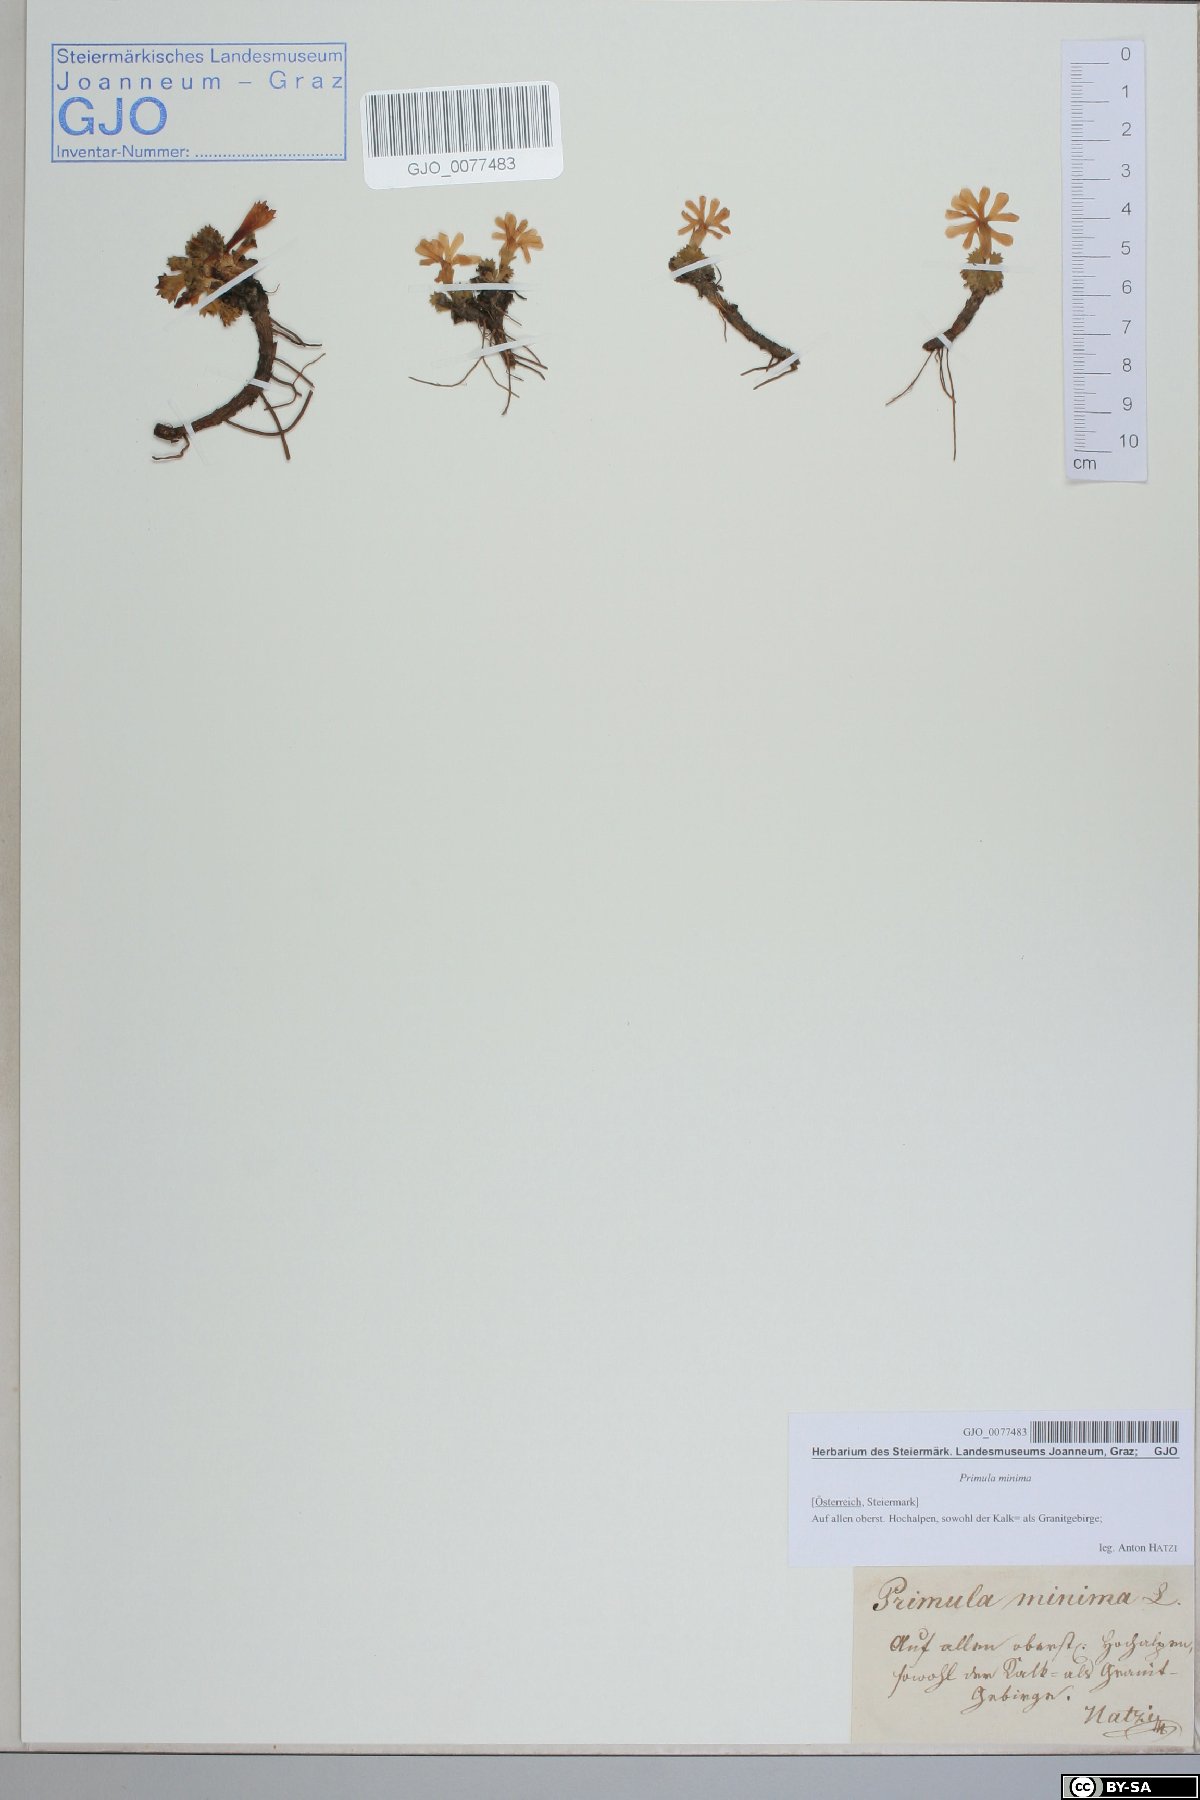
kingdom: Plantae
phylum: Tracheophyta
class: Magnoliopsida
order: Ericales
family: Primulaceae
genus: Primula
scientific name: Primula minima
